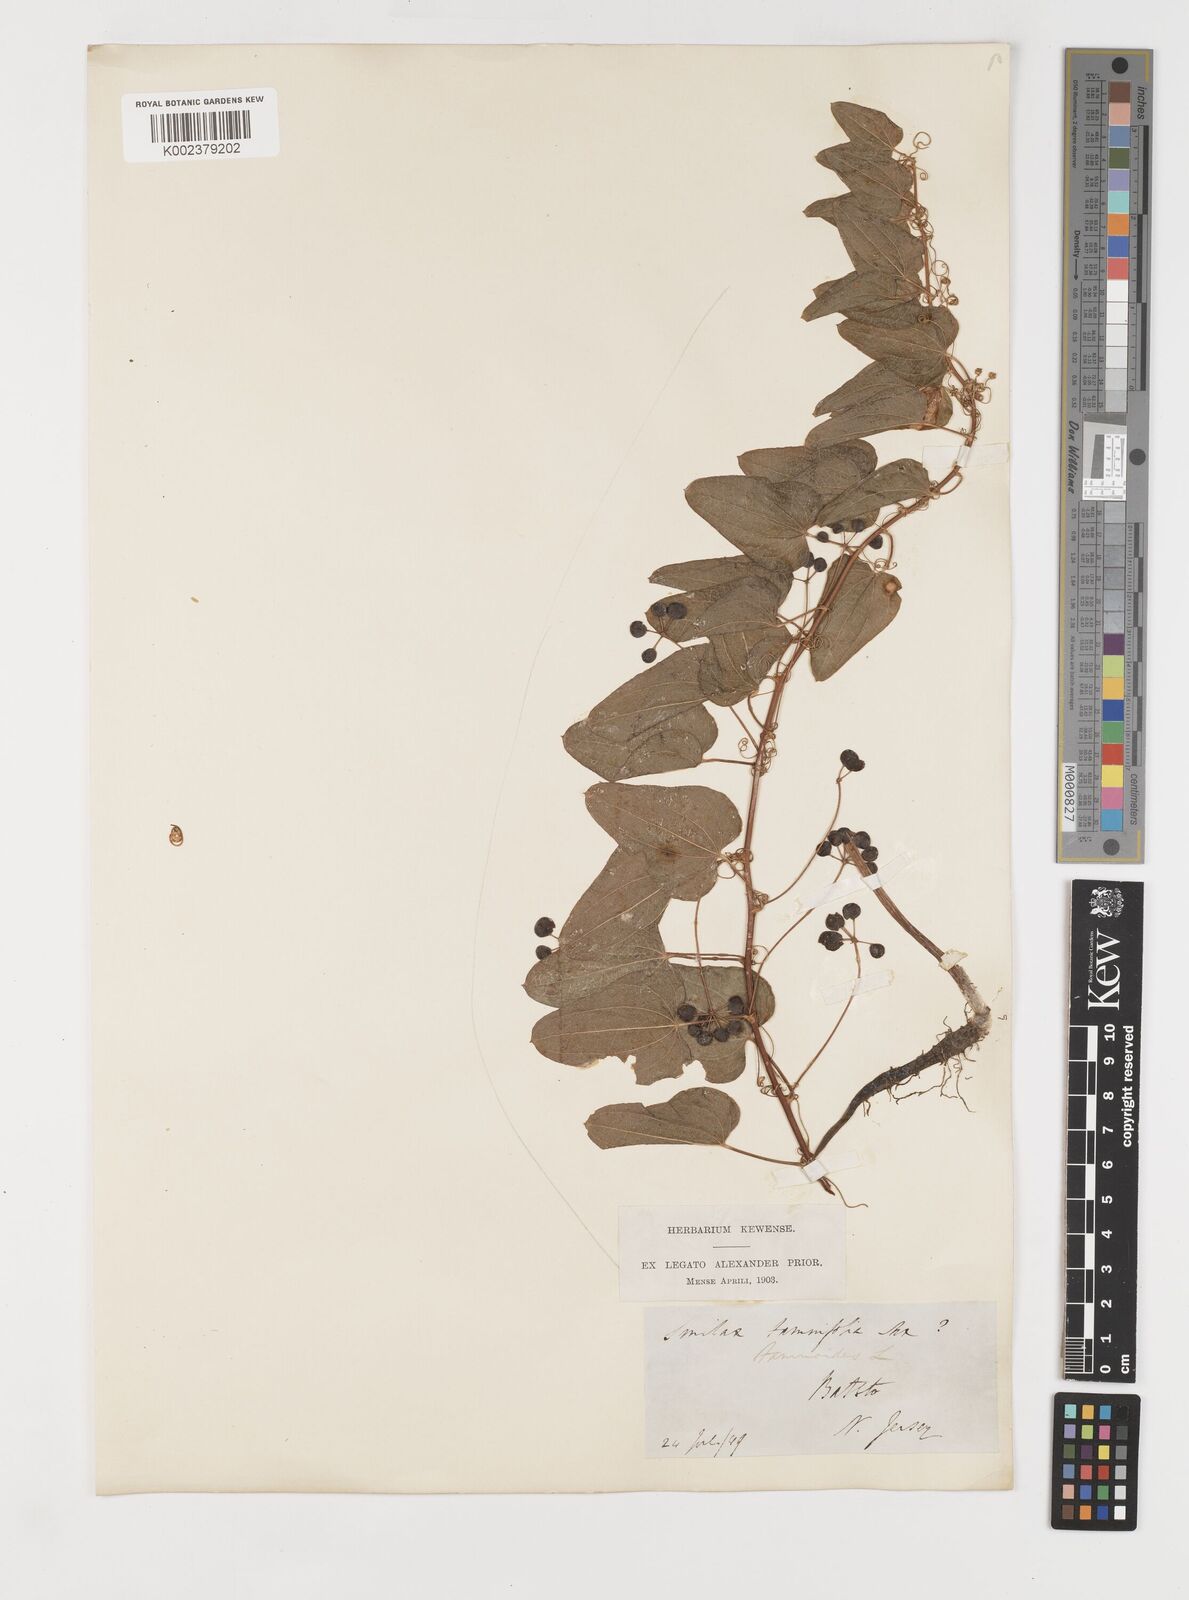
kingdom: Plantae
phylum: Tracheophyta
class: Liliopsida
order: Liliales
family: Smilacaceae
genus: Smilax
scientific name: Smilax pseudochina
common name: False chinaroot
